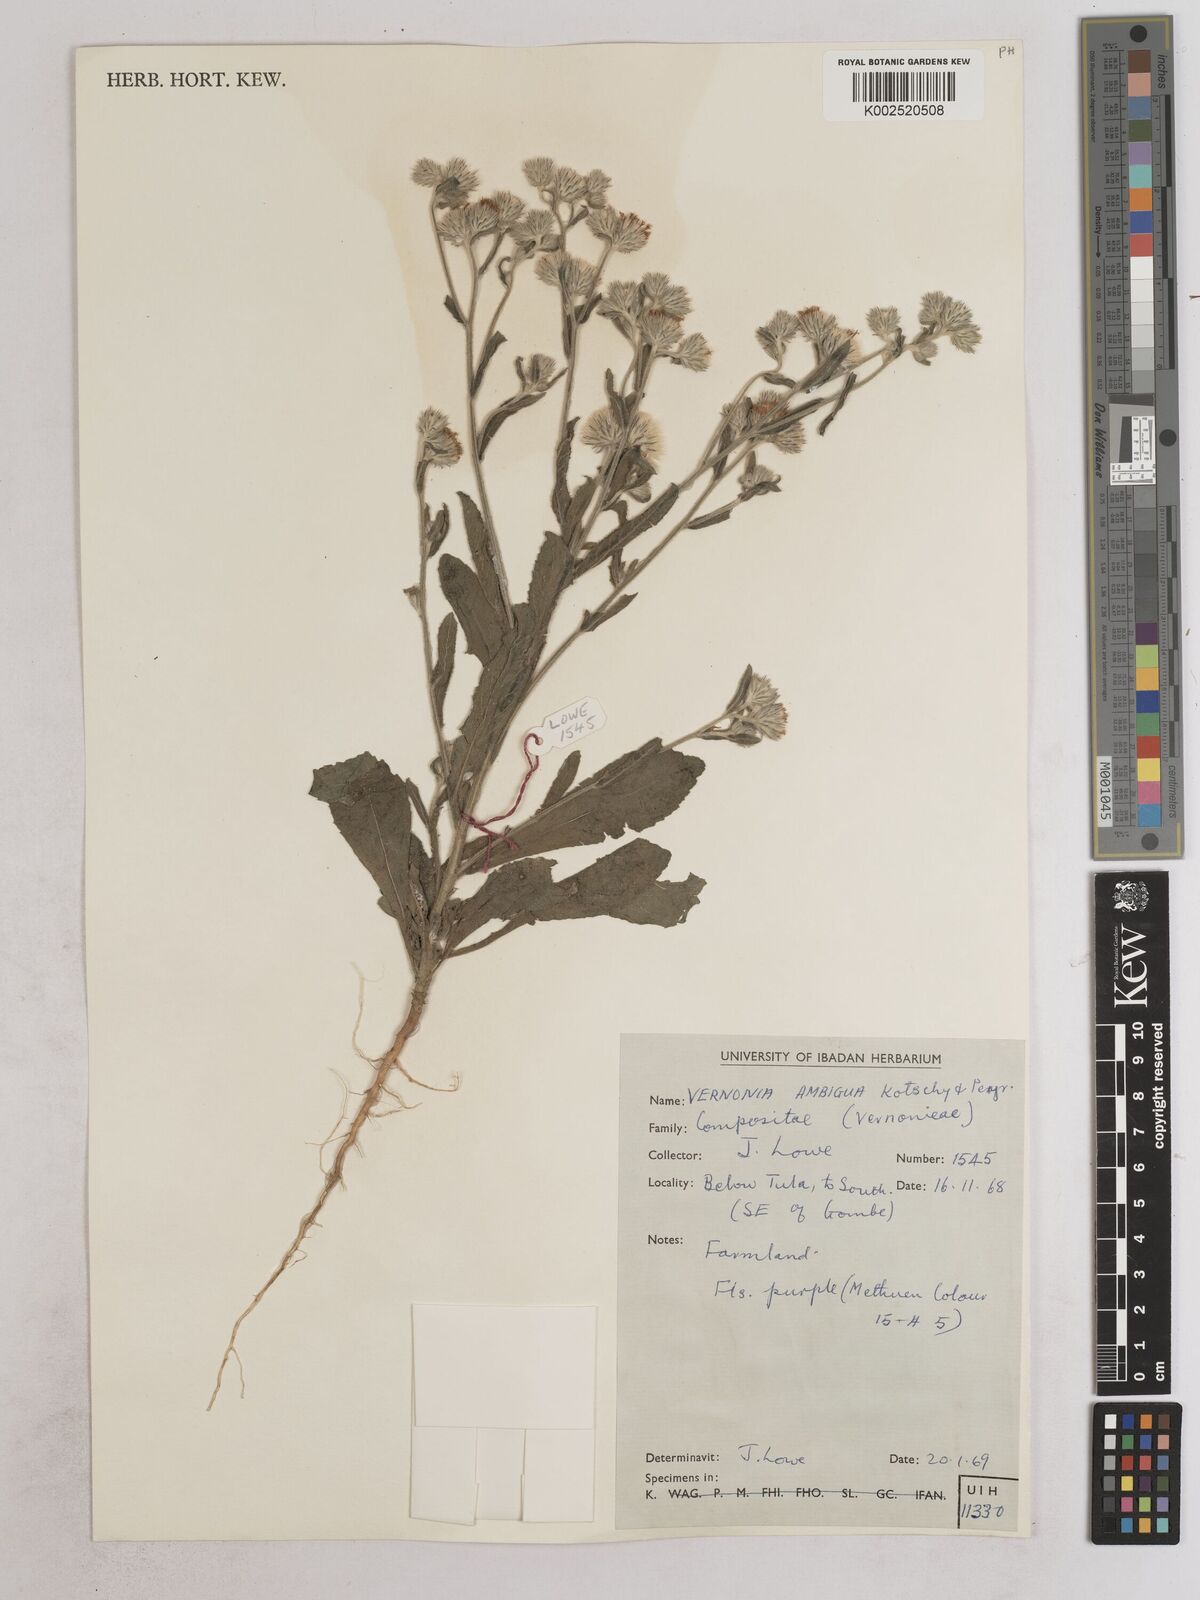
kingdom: Plantae
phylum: Tracheophyta
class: Magnoliopsida
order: Asterales
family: Asteraceae
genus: Vernoniastrum
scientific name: Vernoniastrum ambiguum
